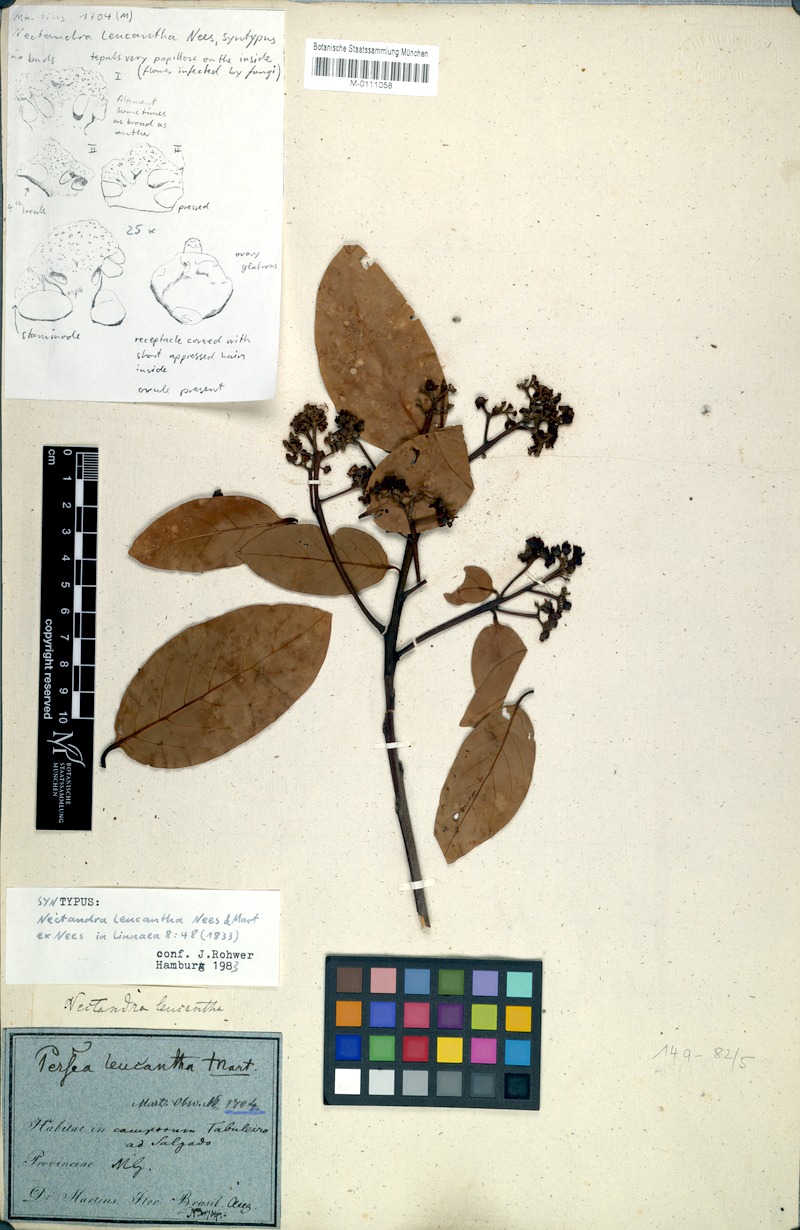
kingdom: Plantae
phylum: Tracheophyta
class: Magnoliopsida
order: Laurales
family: Lauraceae
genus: Nectandra
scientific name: Nectandra leucantha
